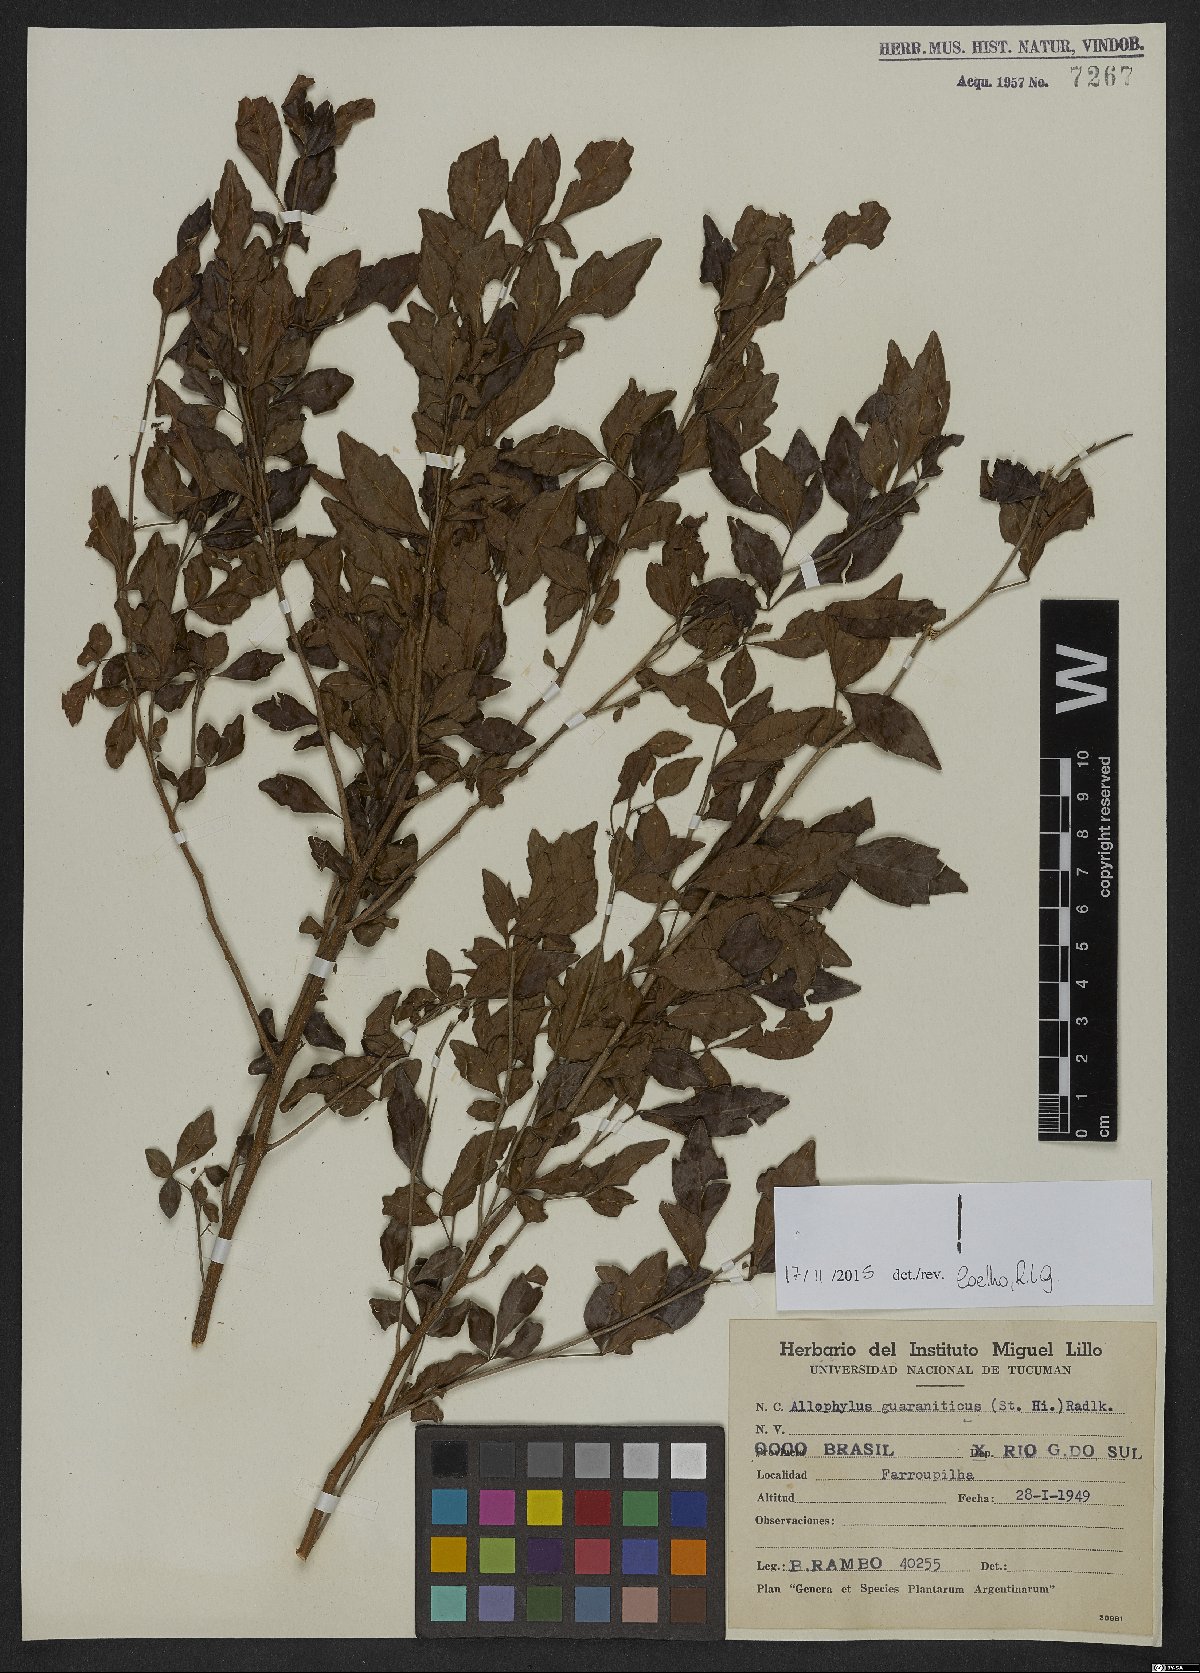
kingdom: Plantae
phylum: Tracheophyta
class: Magnoliopsida
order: Sapindales
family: Sapindaceae
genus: Allophylus
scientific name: Allophylus guaraniticus
